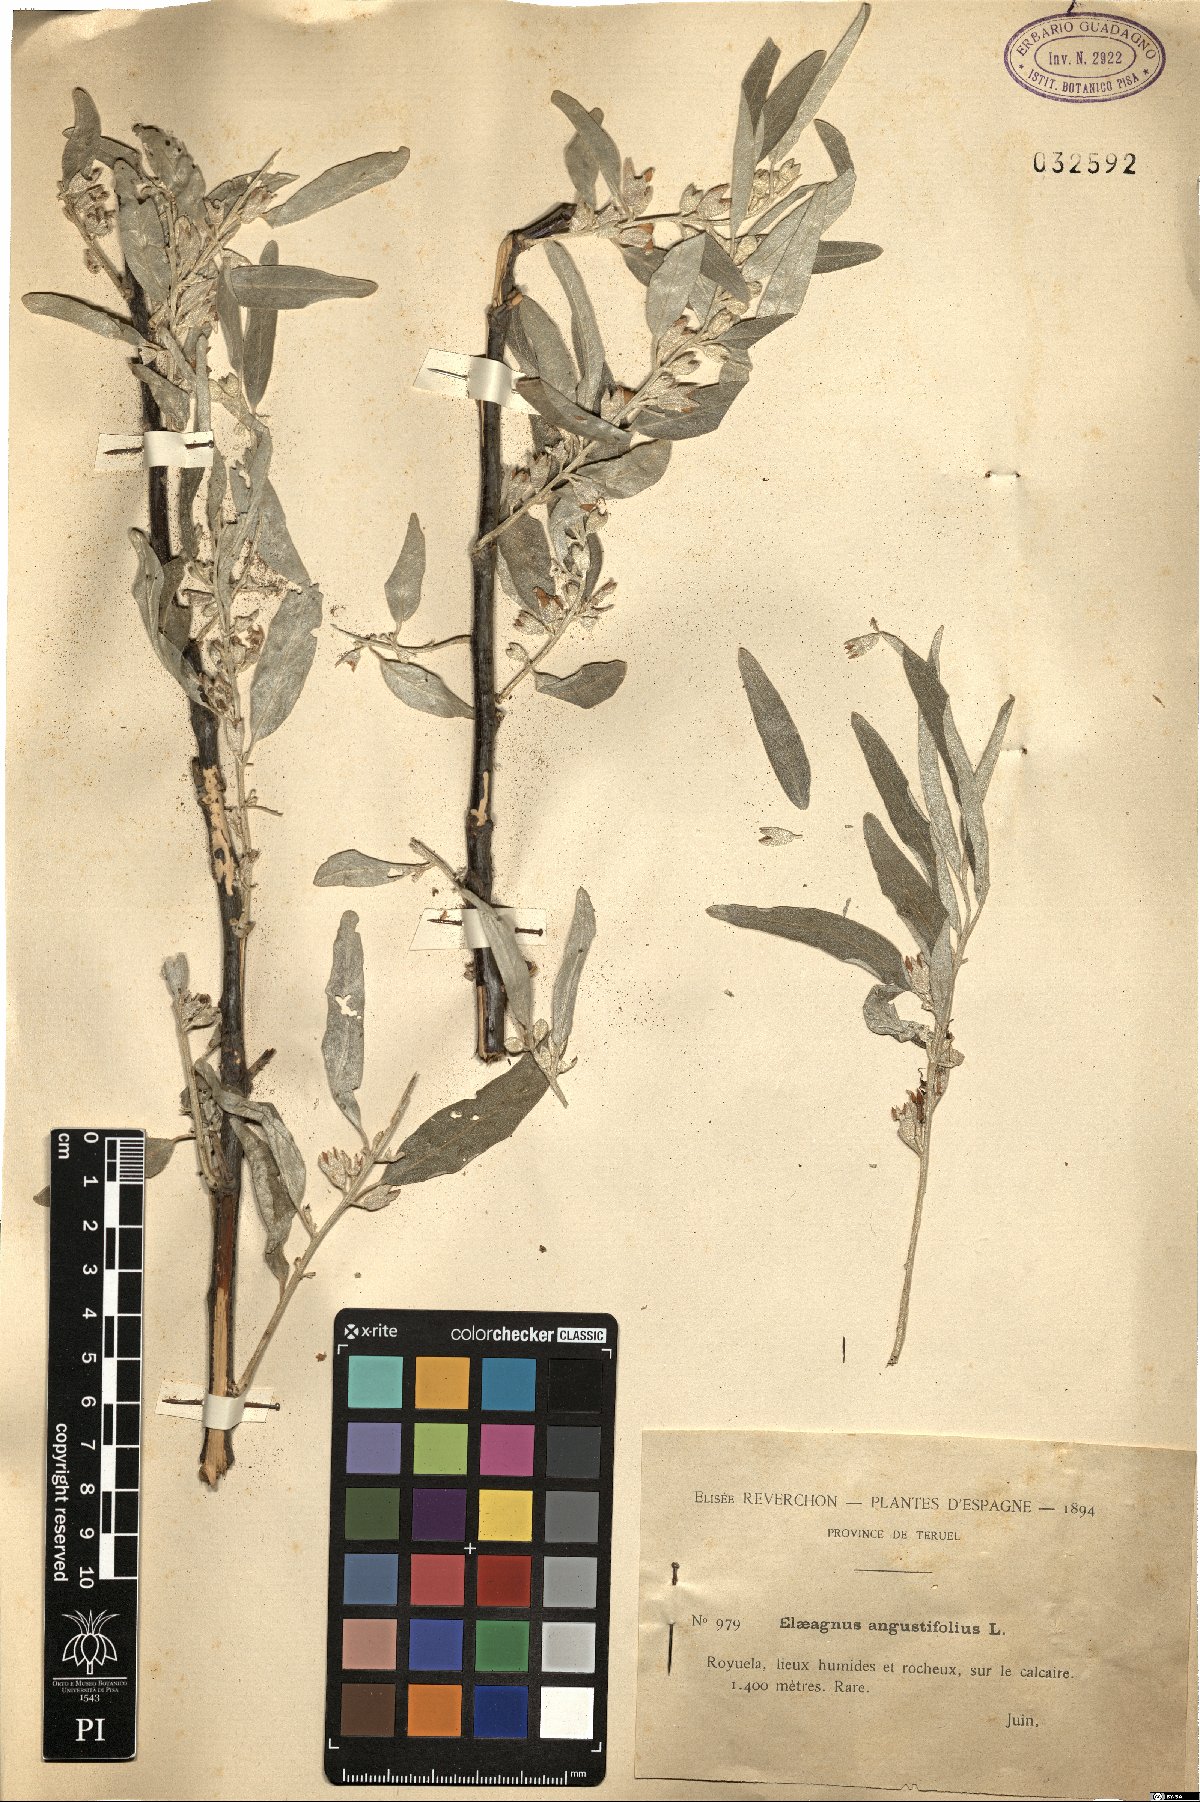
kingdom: Plantae
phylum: Tracheophyta
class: Magnoliopsida
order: Rosales
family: Elaeagnaceae
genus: Elaeagnus
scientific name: Elaeagnus angustifolia
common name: Russian olive
